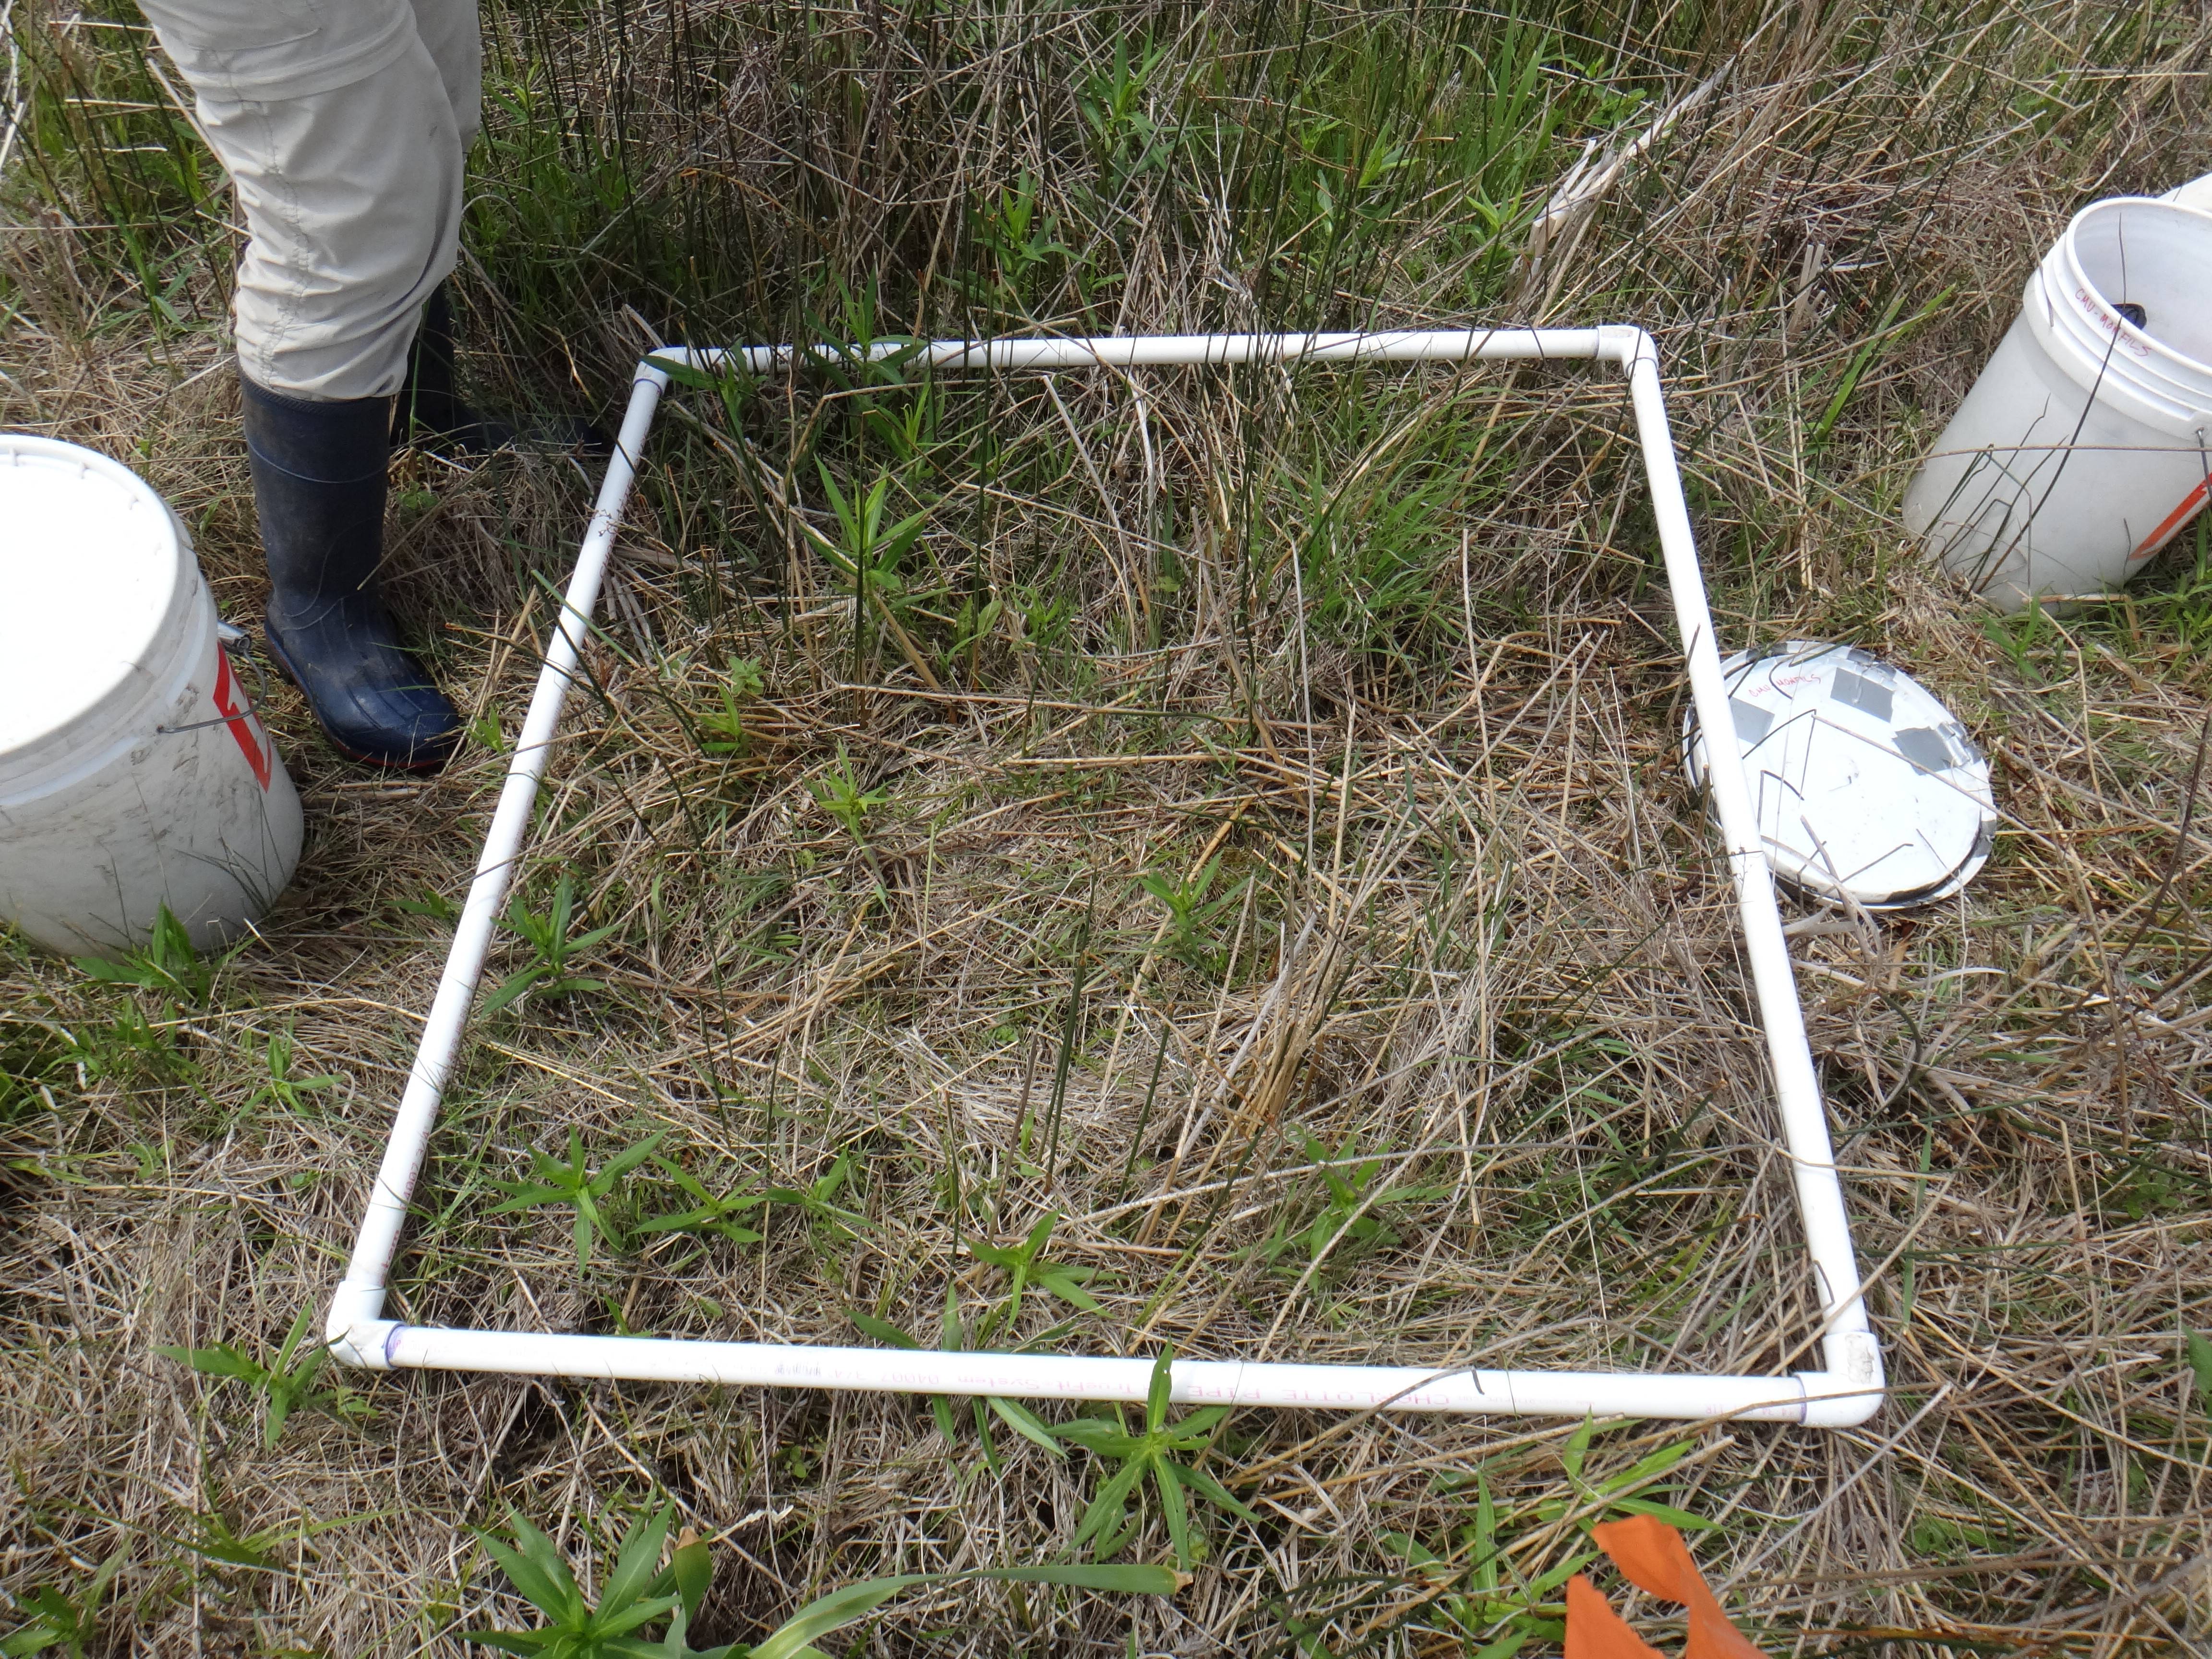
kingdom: Plantae
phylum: Tracheophyta
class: Magnoliopsida
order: Asterales
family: Asteraceae
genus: Symphyotrichum
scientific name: Symphyotrichum firmum
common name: Shining aster
